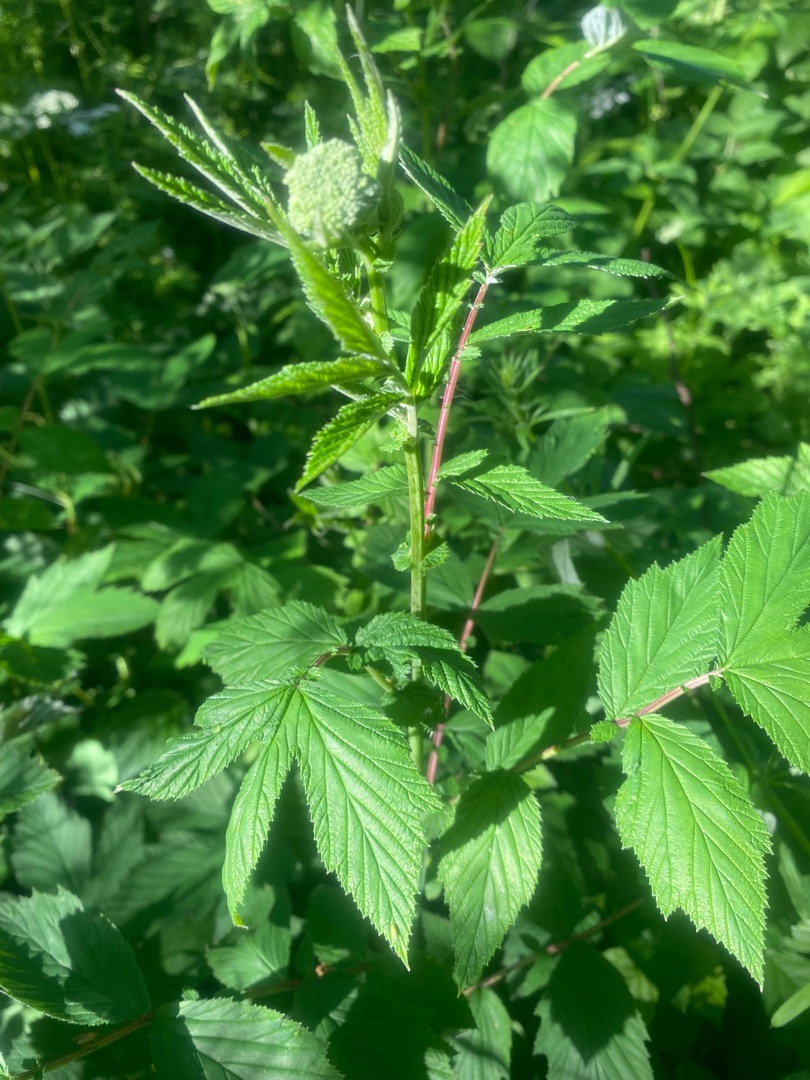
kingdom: Plantae
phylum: Tracheophyta
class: Magnoliopsida
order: Rosales
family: Rosaceae
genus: Filipendula
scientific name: Filipendula ulmaria
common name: Almindelig mjødurt
